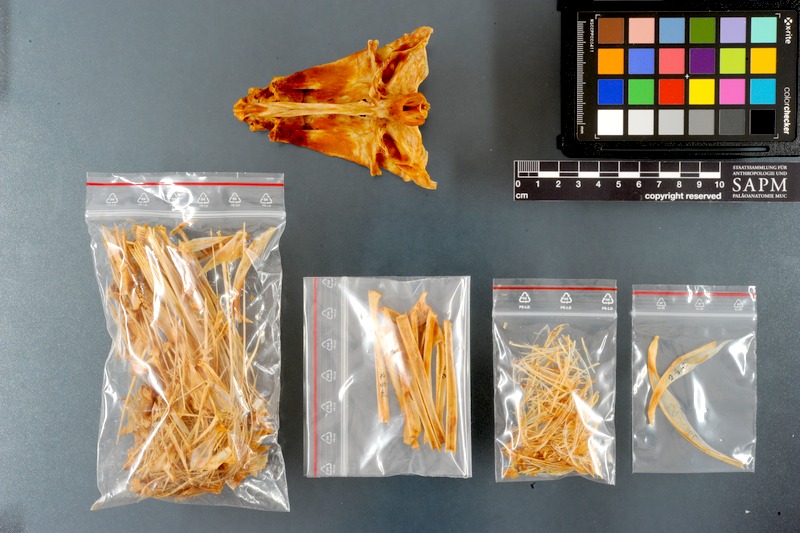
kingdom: Animalia
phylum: Chordata
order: Perciformes
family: Scombridae
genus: Thunnus
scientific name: Thunnus alalunga
